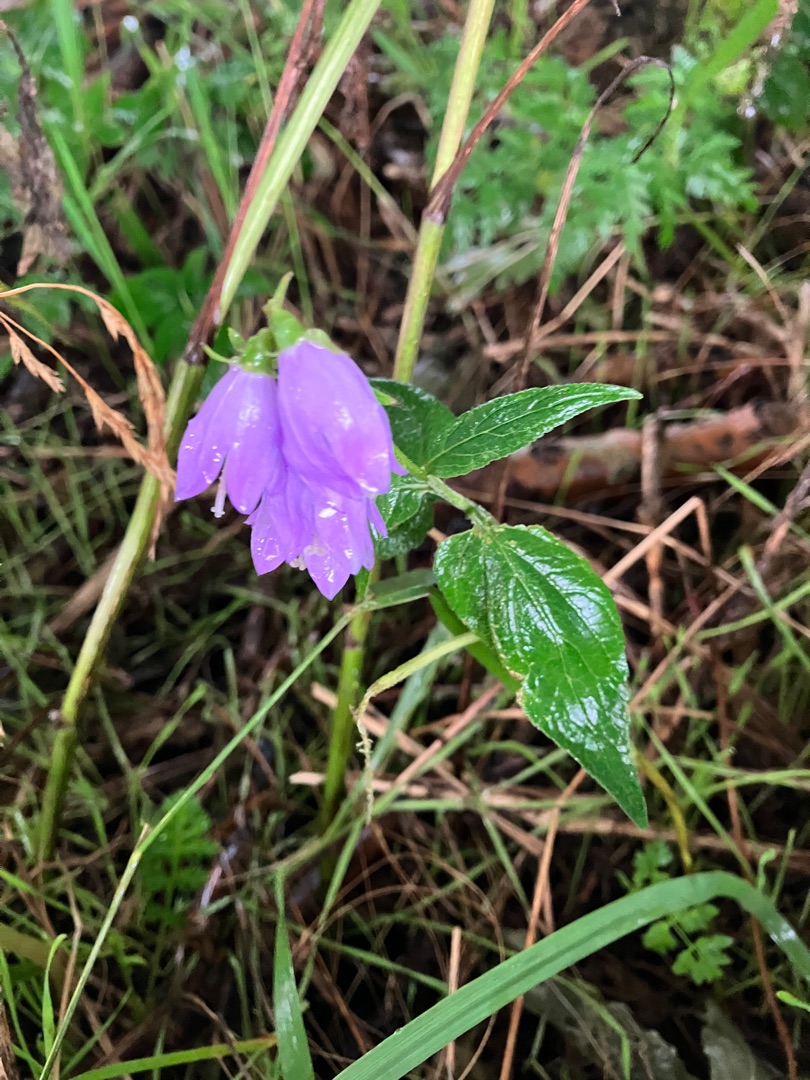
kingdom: Plantae
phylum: Tracheophyta
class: Magnoliopsida
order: Asterales
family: Campanulaceae
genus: Campanula
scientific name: Campanula rapunculoides
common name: Ensidig klokke
